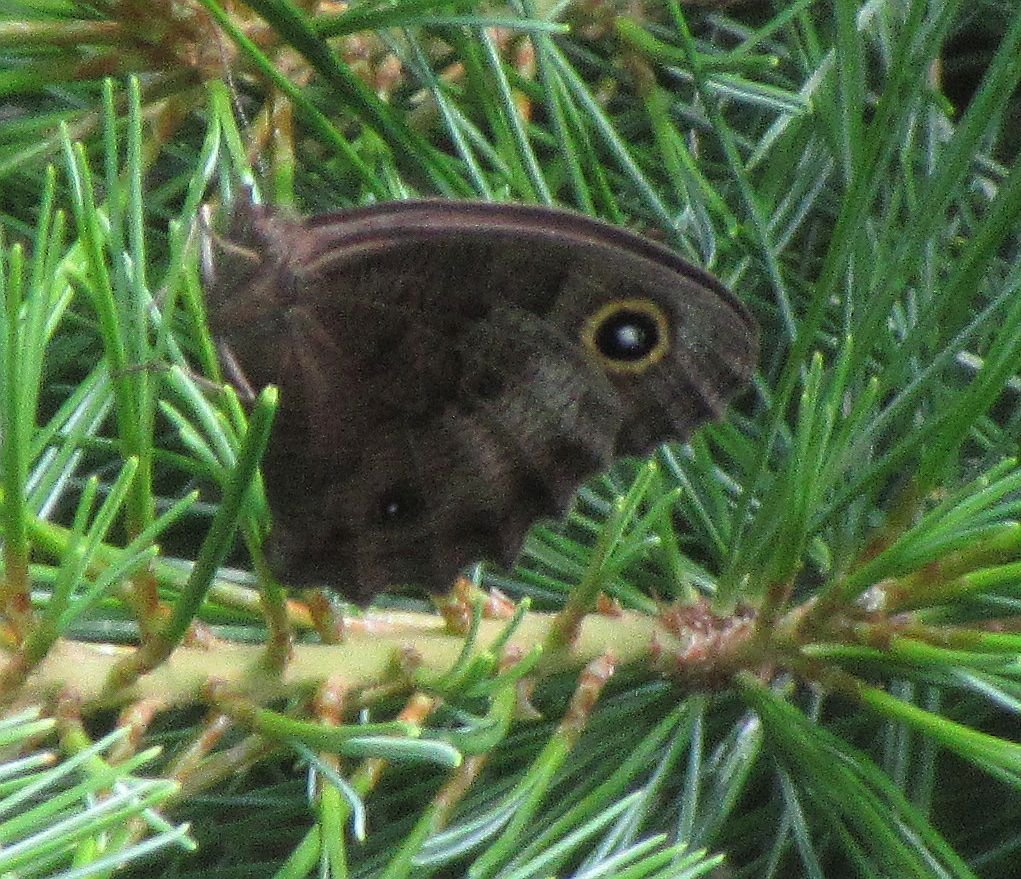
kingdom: Animalia
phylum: Arthropoda
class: Insecta
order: Lepidoptera
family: Nymphalidae
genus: Cercyonis
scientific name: Cercyonis pegala
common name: Common Wood-Nymph
